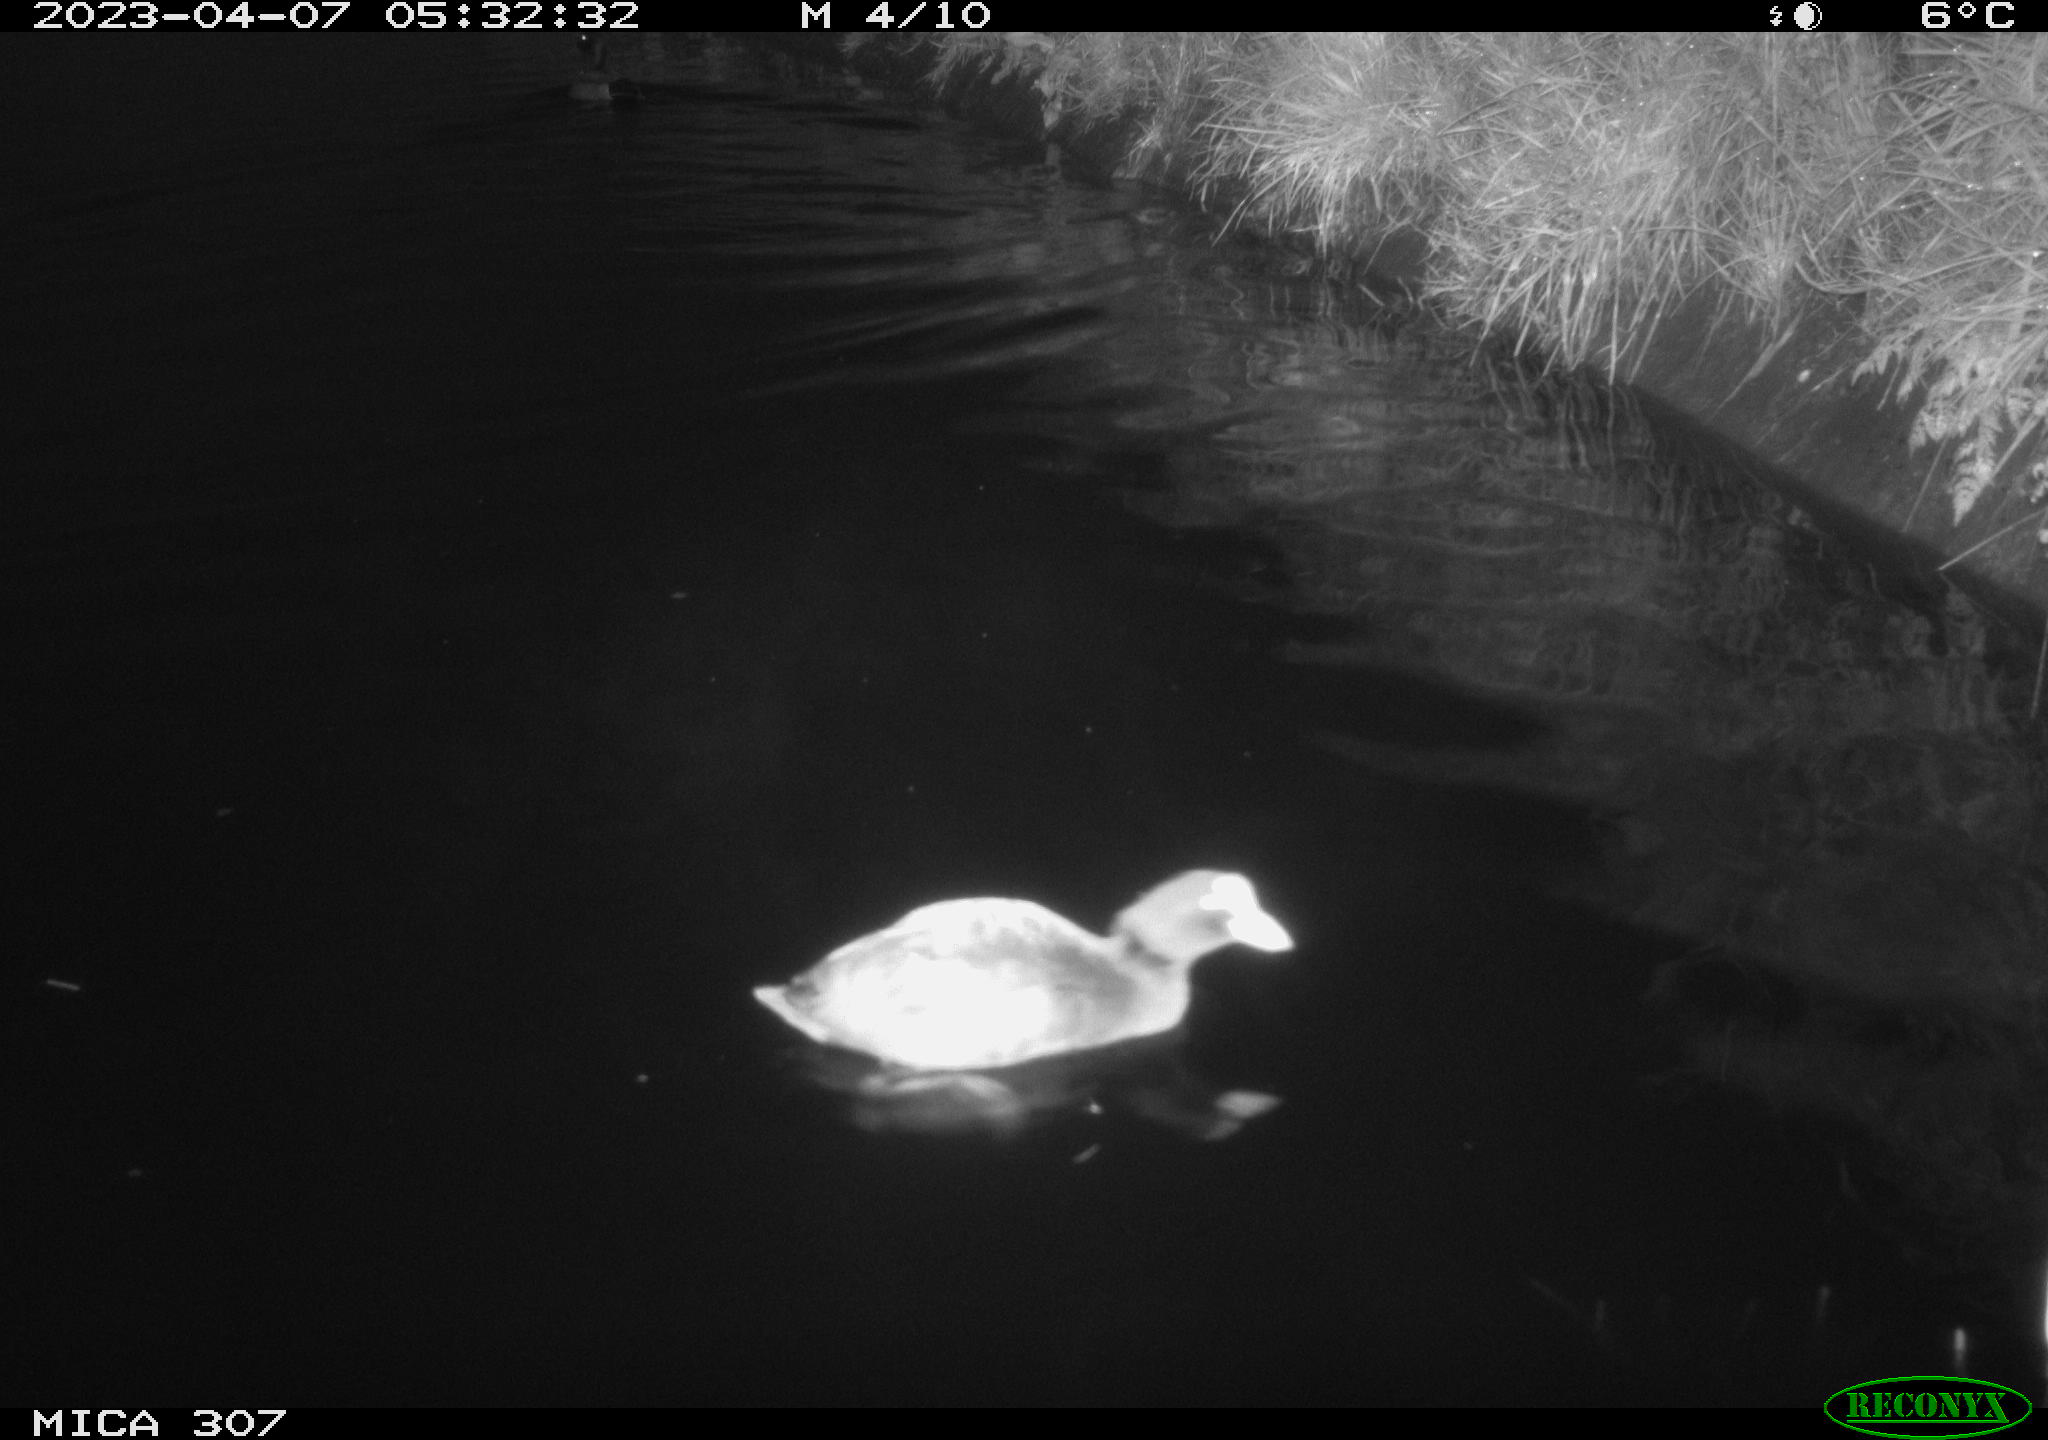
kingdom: Animalia
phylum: Chordata
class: Aves
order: Gruiformes
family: Rallidae
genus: Fulica
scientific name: Fulica atra
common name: Eurasian coot
